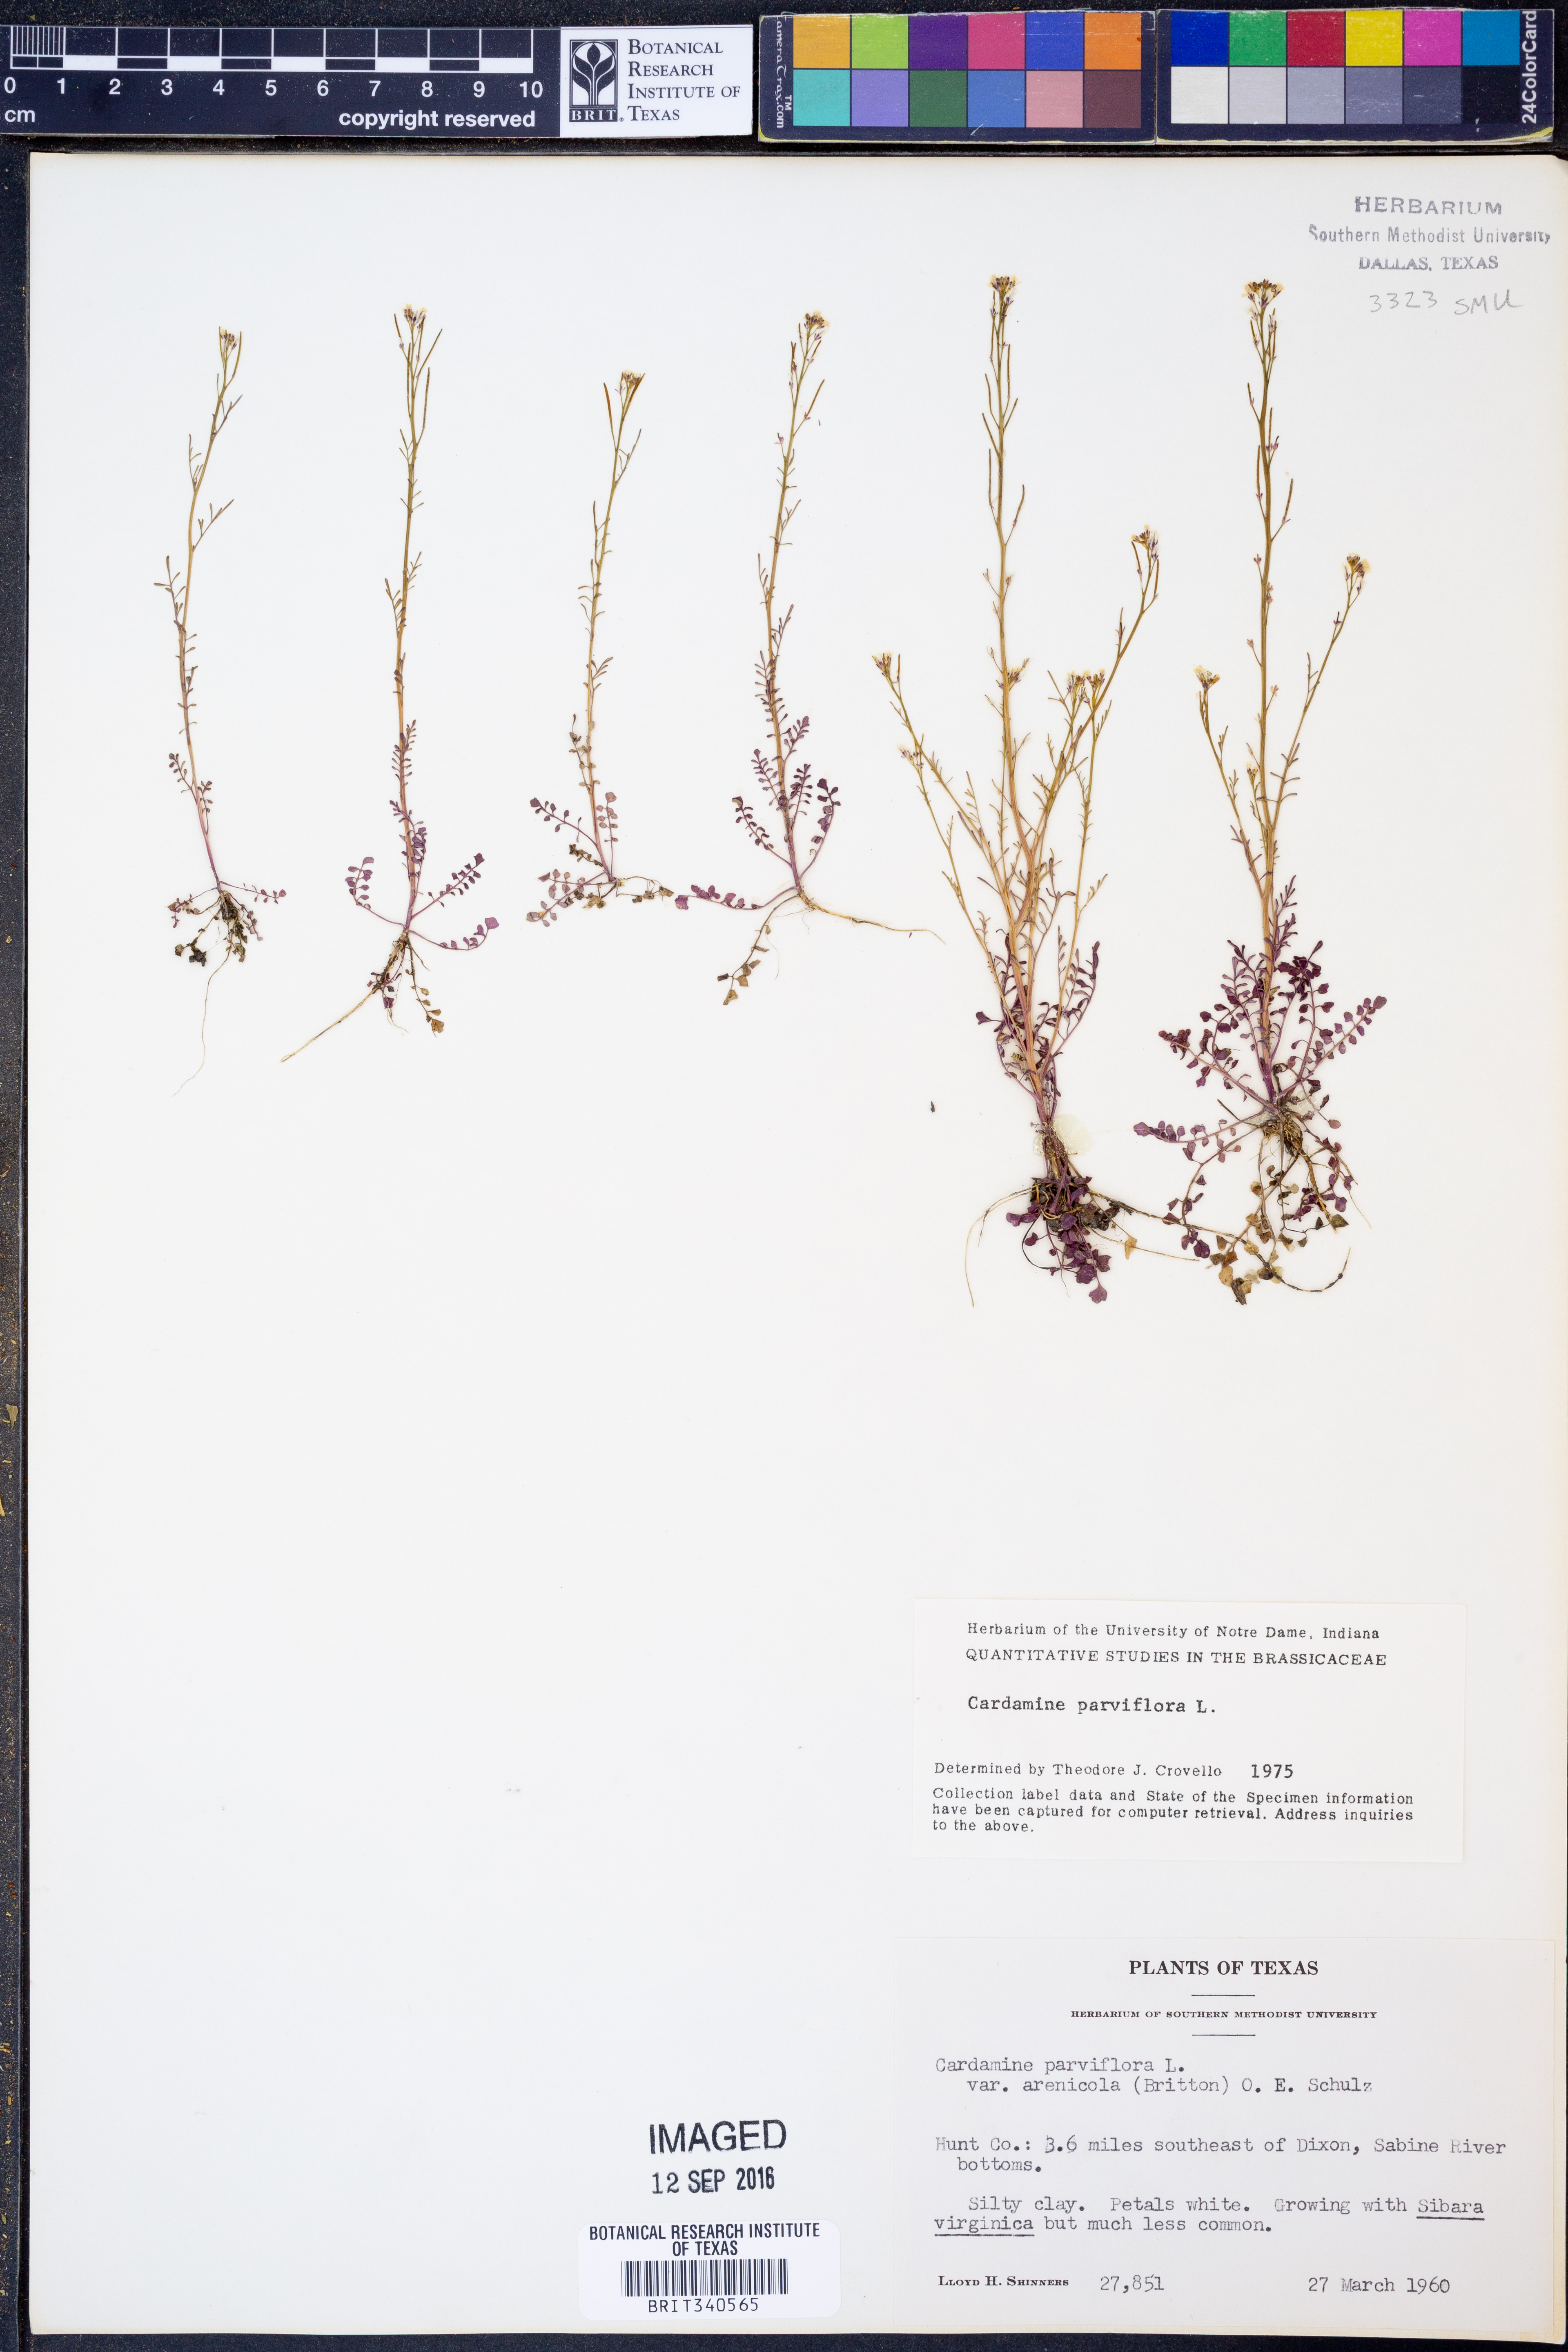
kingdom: Plantae
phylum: Tracheophyta
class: Magnoliopsida
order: Brassicales
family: Brassicaceae
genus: Cardamine
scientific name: Cardamine parviflora
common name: Sand bittercress
